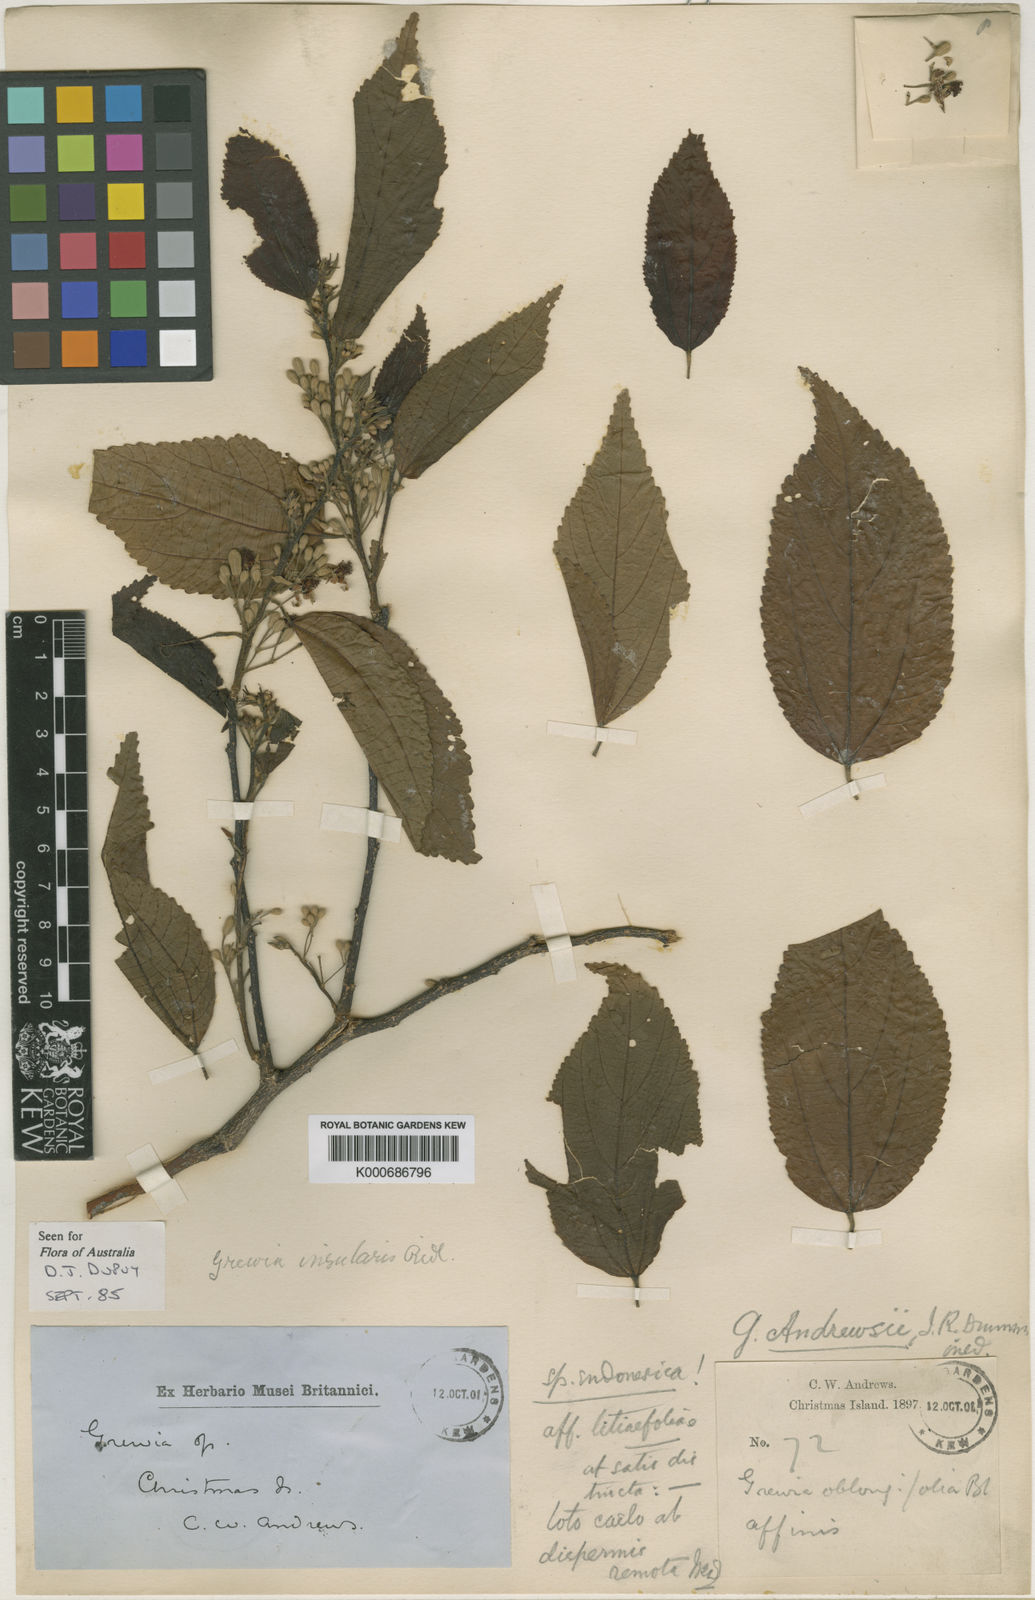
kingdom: Plantae
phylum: Tracheophyta
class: Magnoliopsida
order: Malvales
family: Malvaceae
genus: Grewia
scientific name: Grewia insularis
